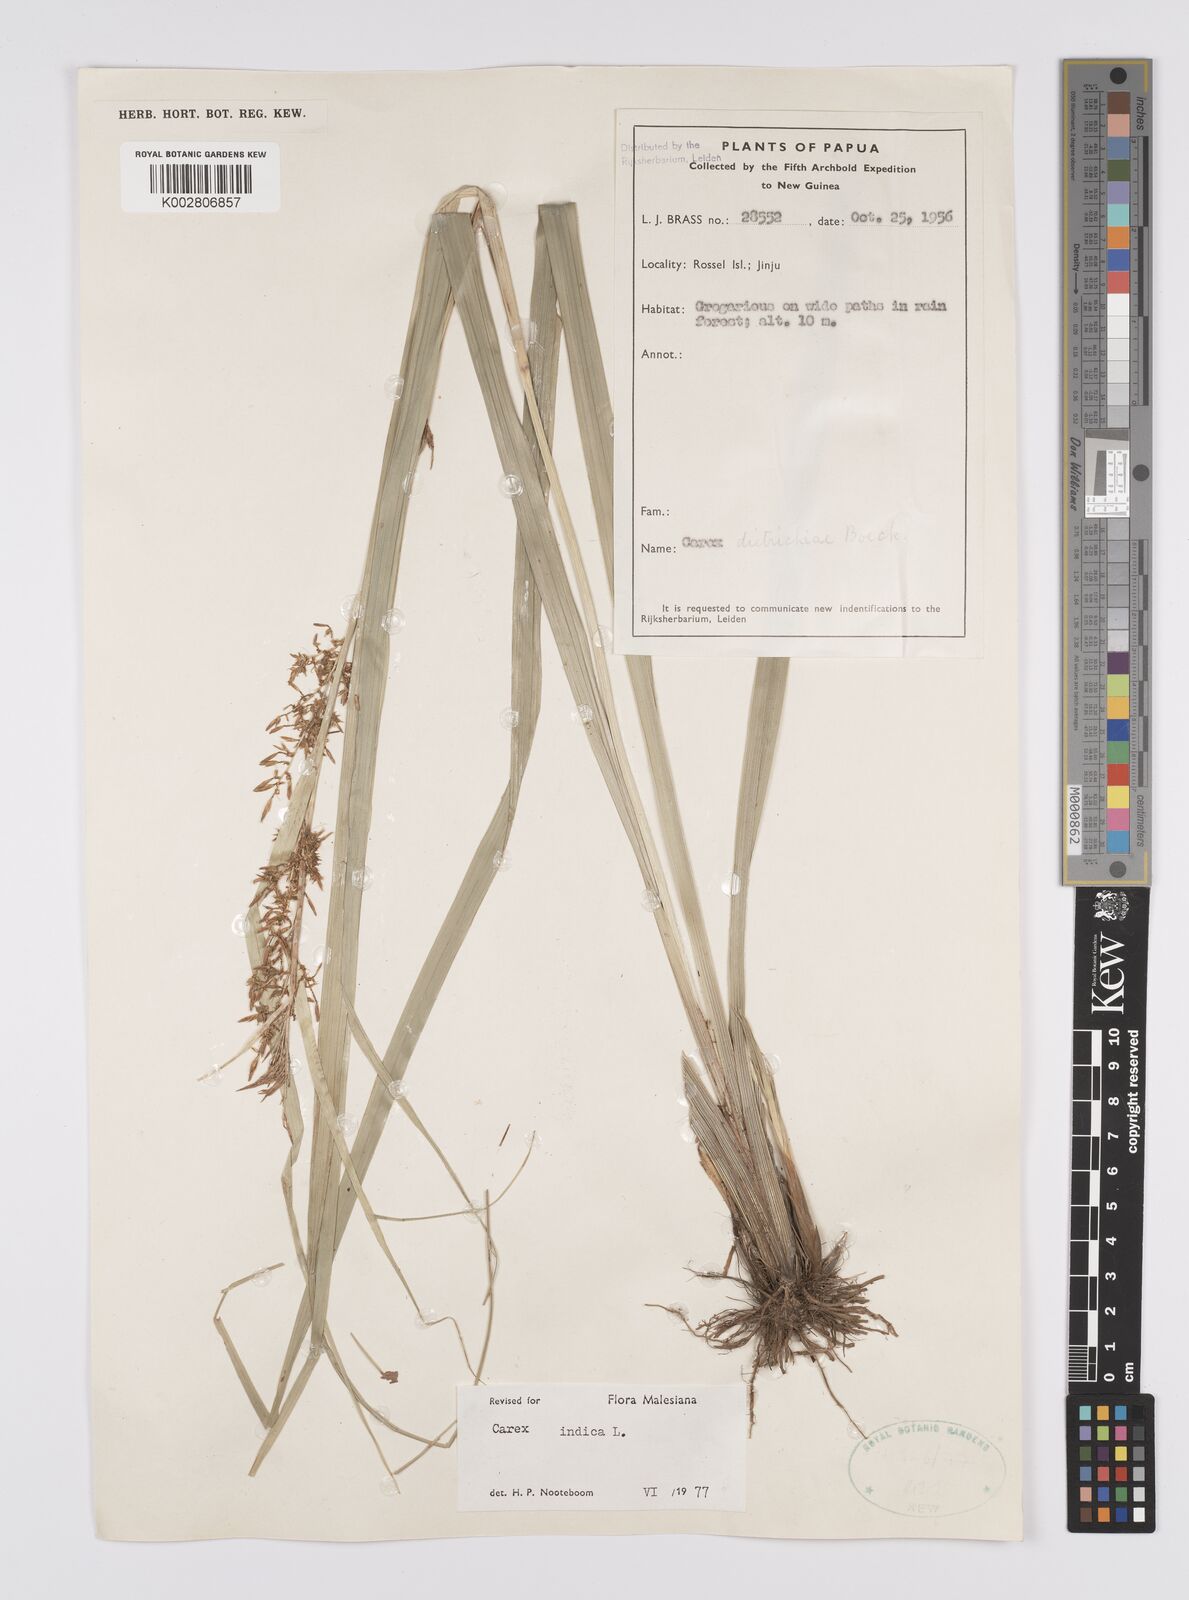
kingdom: Plantae
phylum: Tracheophyta
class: Liliopsida
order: Poales
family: Cyperaceae
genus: Carex
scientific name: Carex indica
